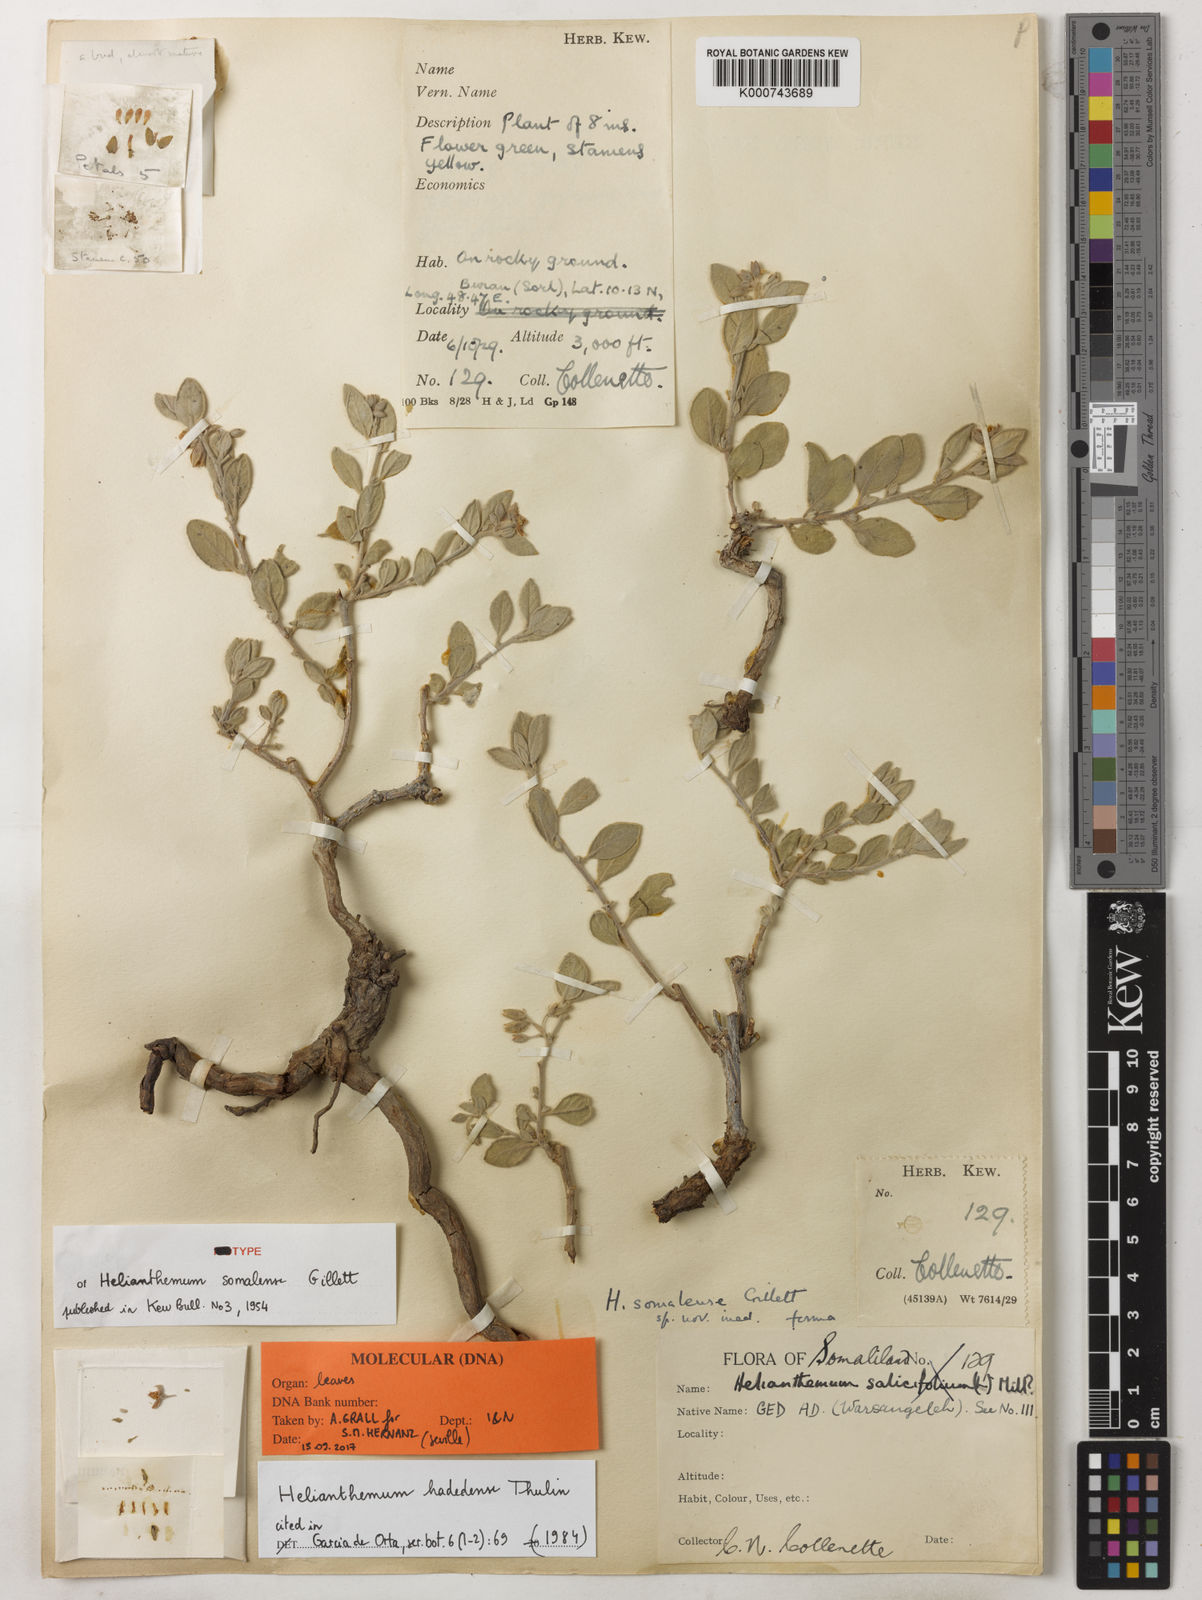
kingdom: Plantae
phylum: Tracheophyta
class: Magnoliopsida
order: Malvales
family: Cistaceae
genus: Helianthemum
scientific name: Helianthemum hadedense
